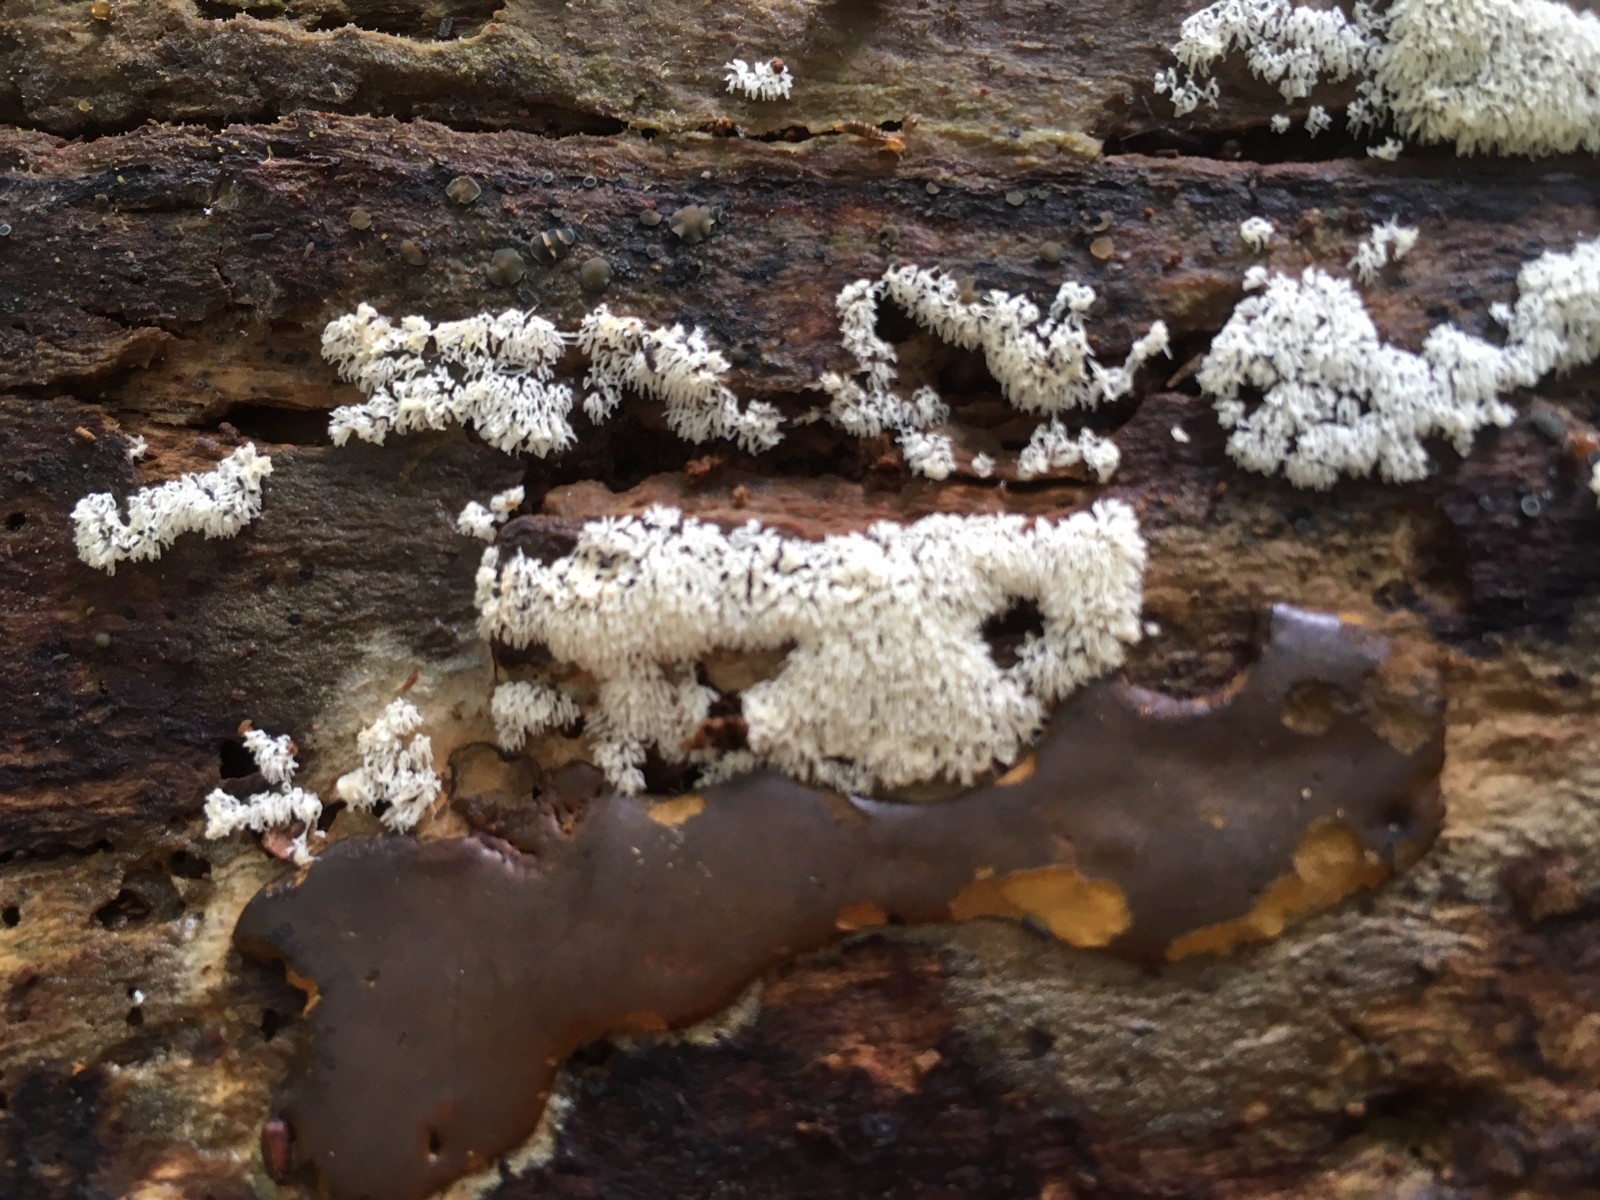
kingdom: Protozoa
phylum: Mycetozoa
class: Myxomycetes
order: Trichiales
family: Dictydiaethaliaceae
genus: Dictydiaethalium
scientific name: Dictydiaethalium plumbeum
